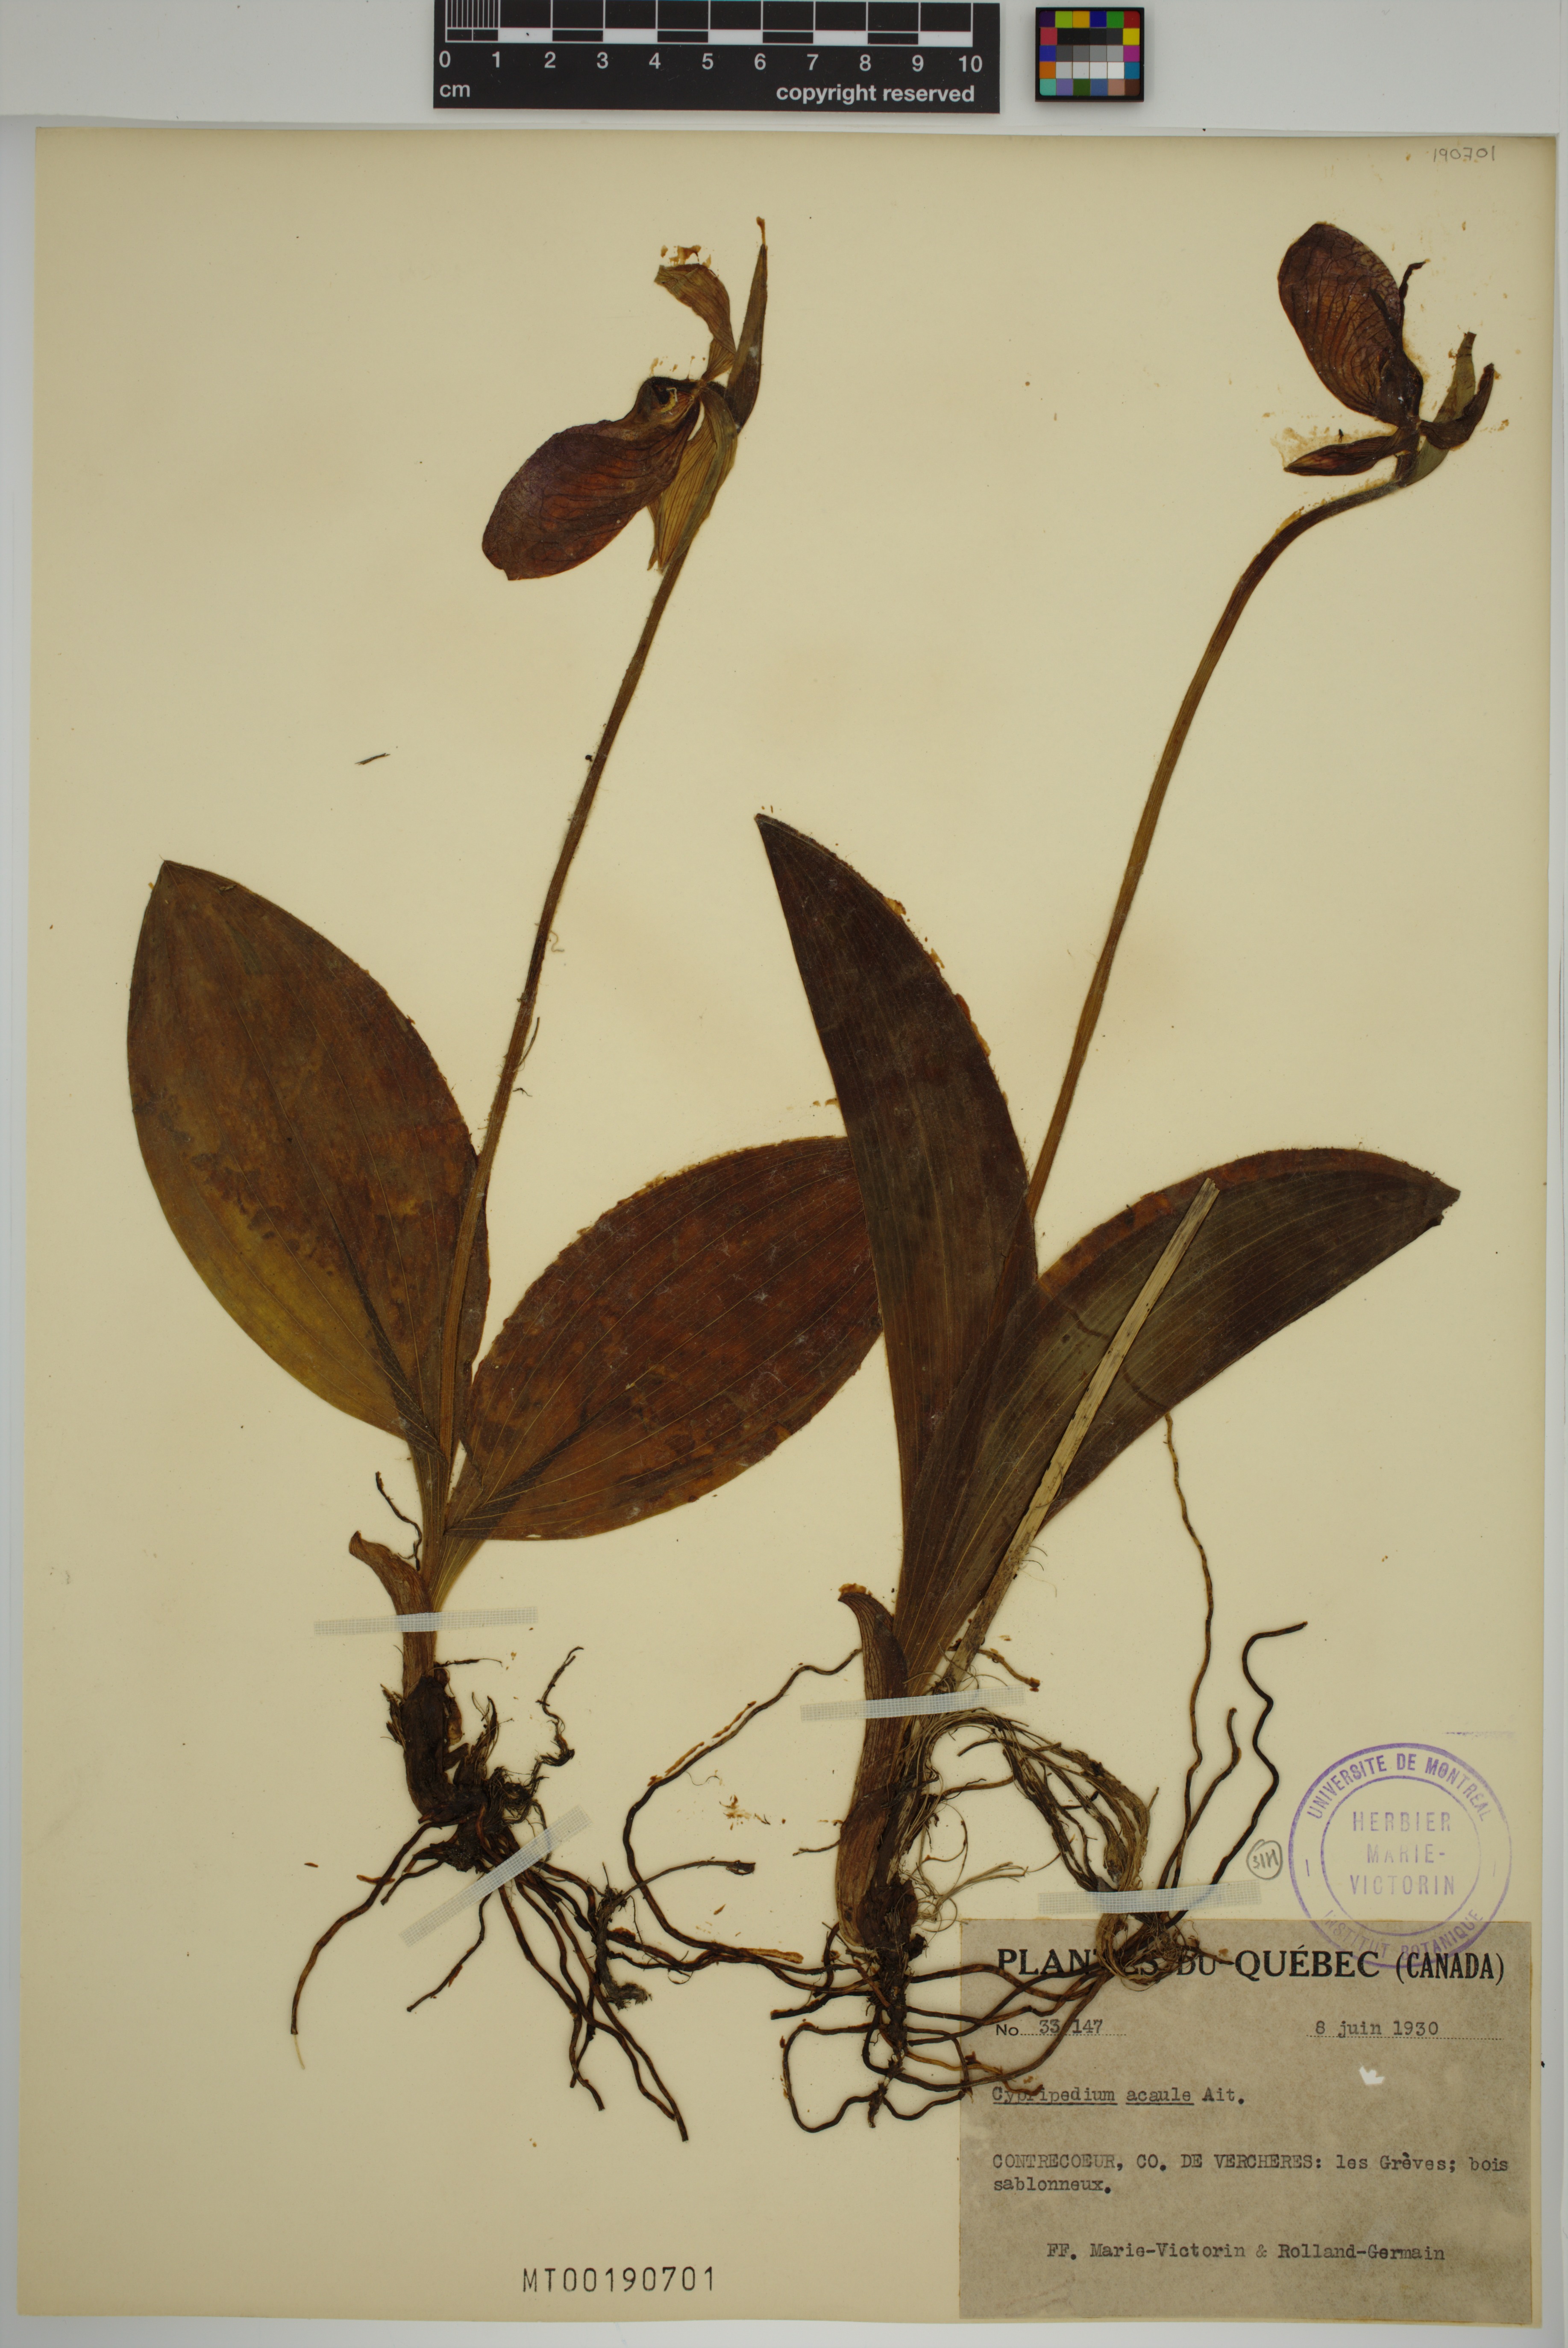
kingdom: Plantae
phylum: Tracheophyta
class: Liliopsida
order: Asparagales
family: Orchidaceae
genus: Cypripedium
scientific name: Cypripedium acaule
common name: Pink lady's-slipper
